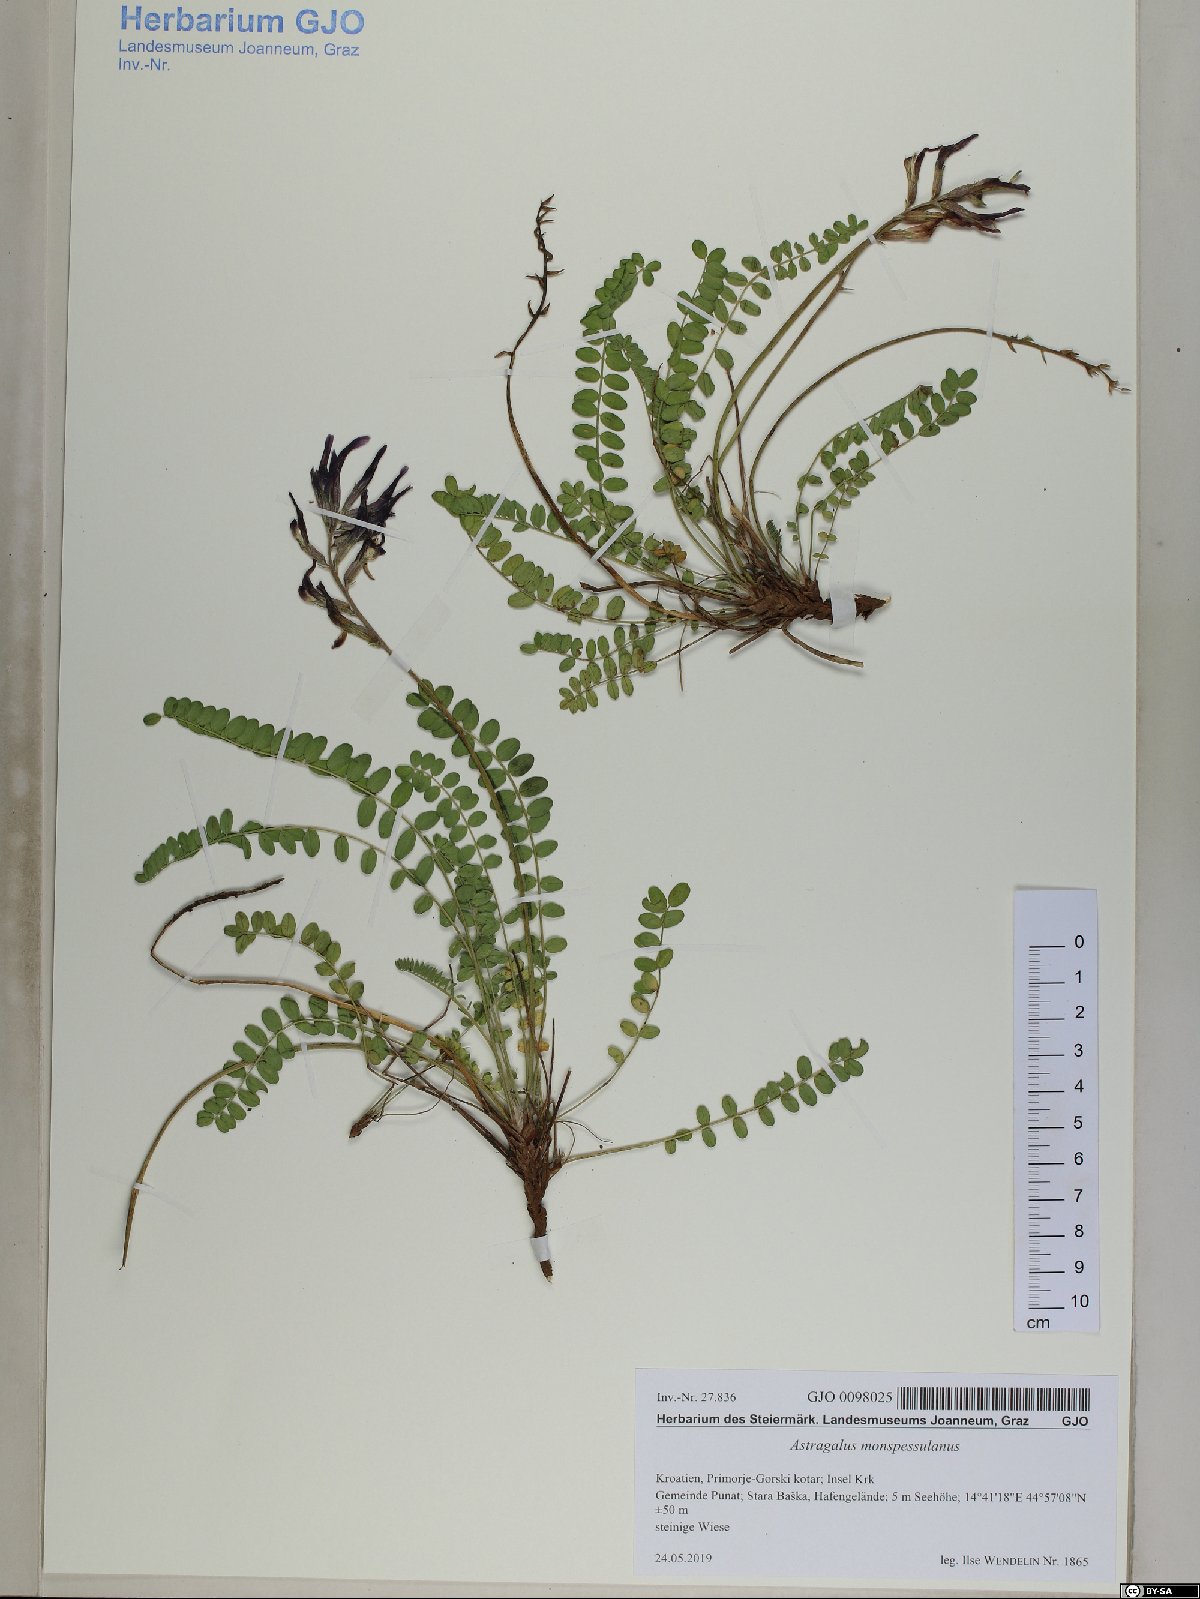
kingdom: Plantae
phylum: Tracheophyta
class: Magnoliopsida
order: Fabales
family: Fabaceae
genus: Astragalus
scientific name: Astragalus monspessulanus
